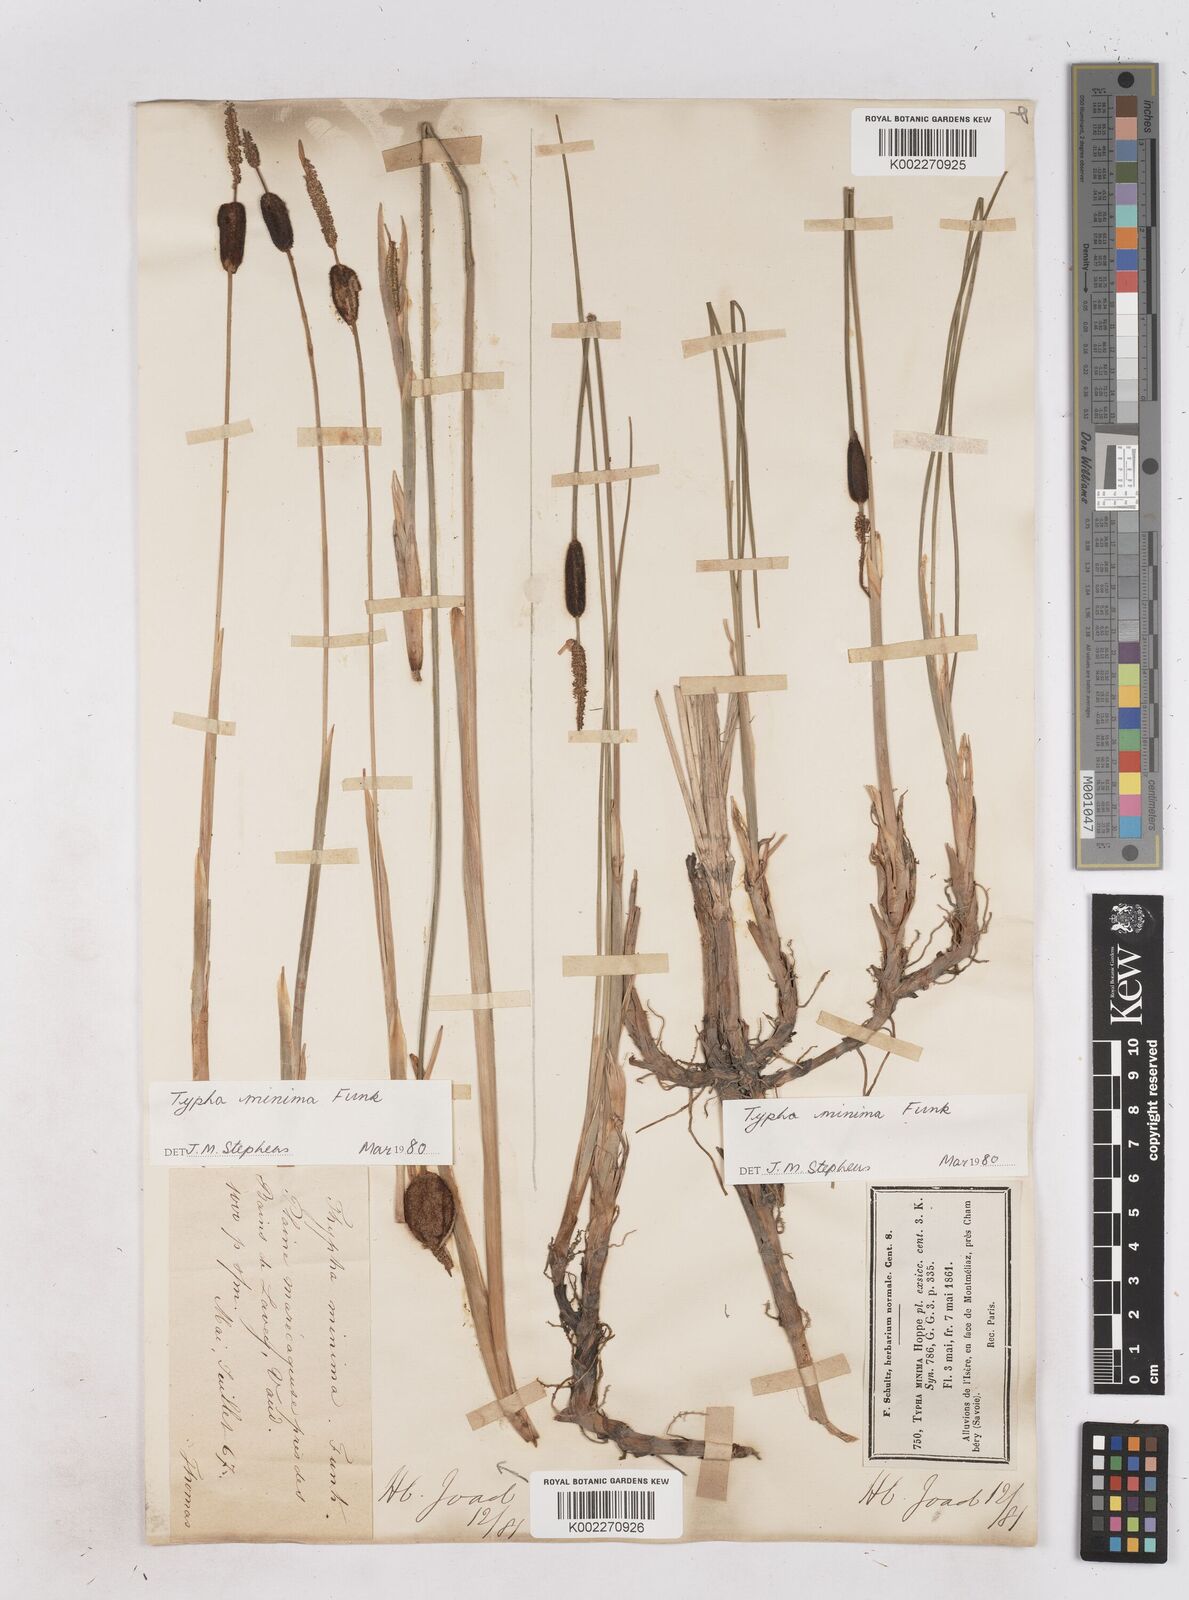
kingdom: Plantae
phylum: Tracheophyta
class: Liliopsida
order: Poales
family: Typhaceae
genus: Typha
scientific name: Typha
